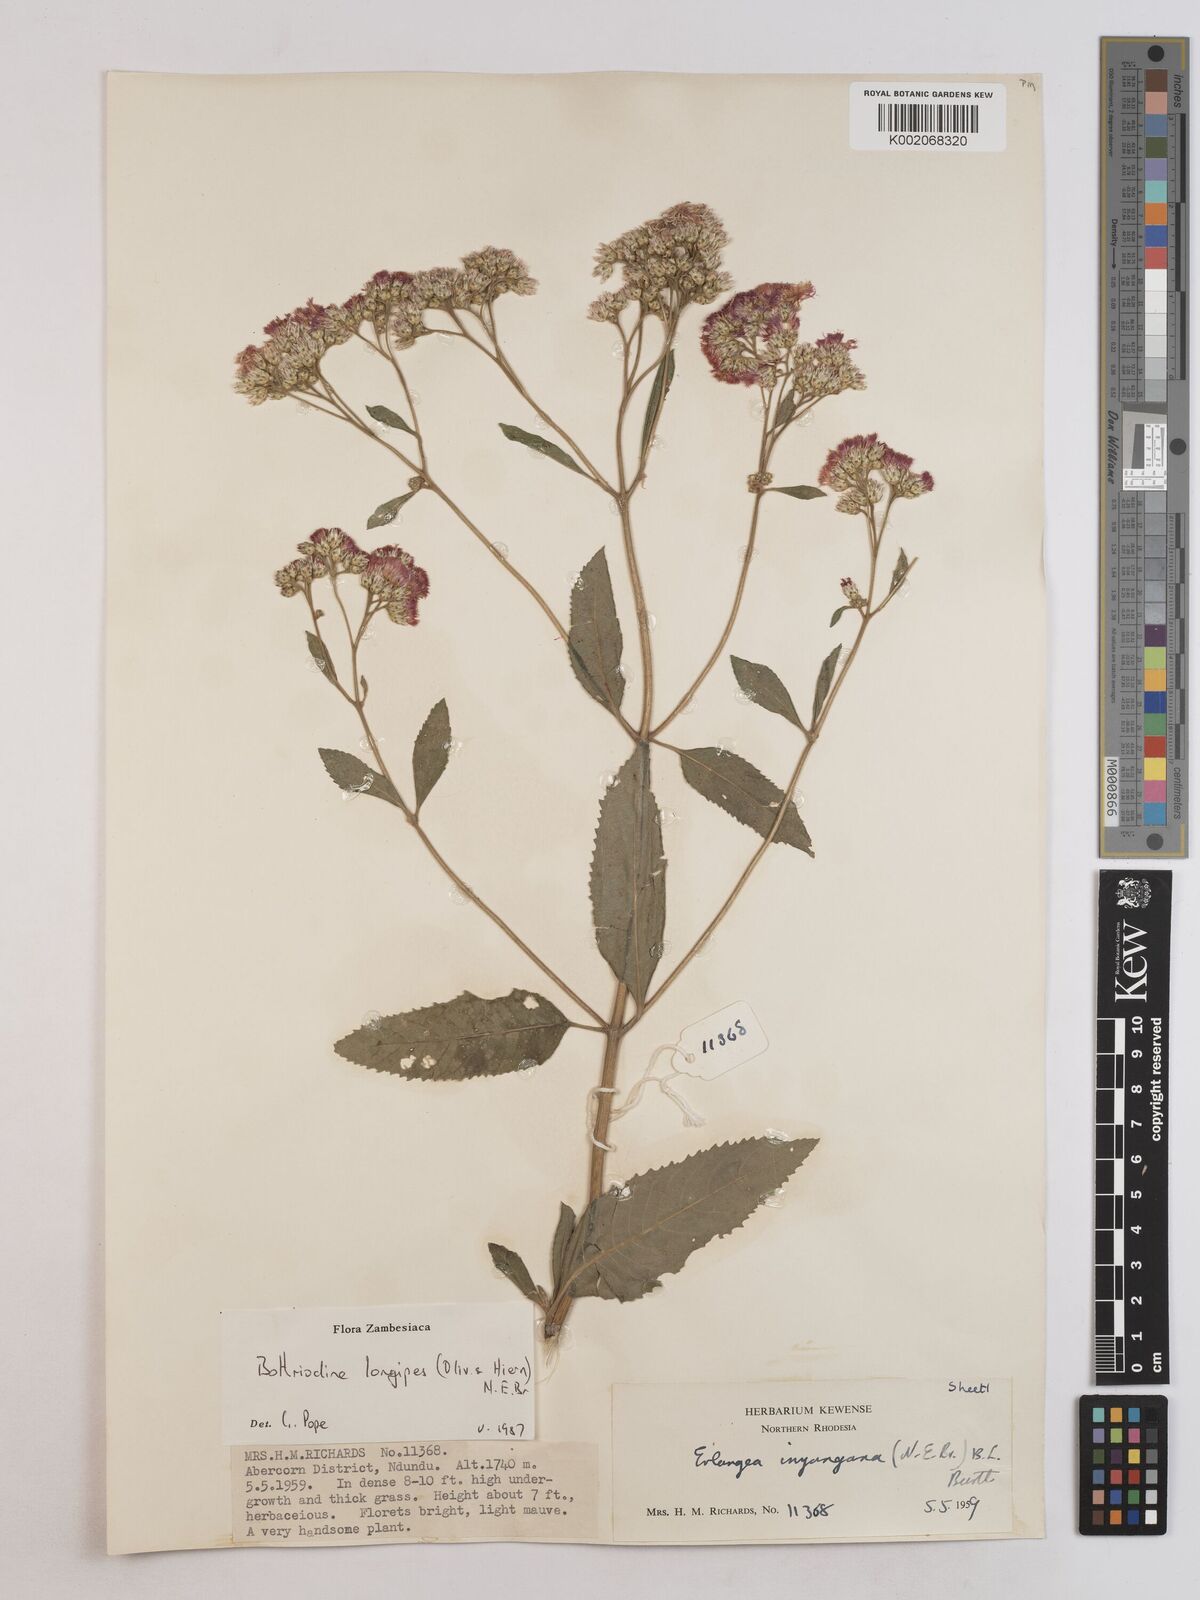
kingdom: Plantae
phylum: Tracheophyta
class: Magnoliopsida
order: Asterales
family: Asteraceae
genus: Bothriocline
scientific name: Bothriocline longipes
